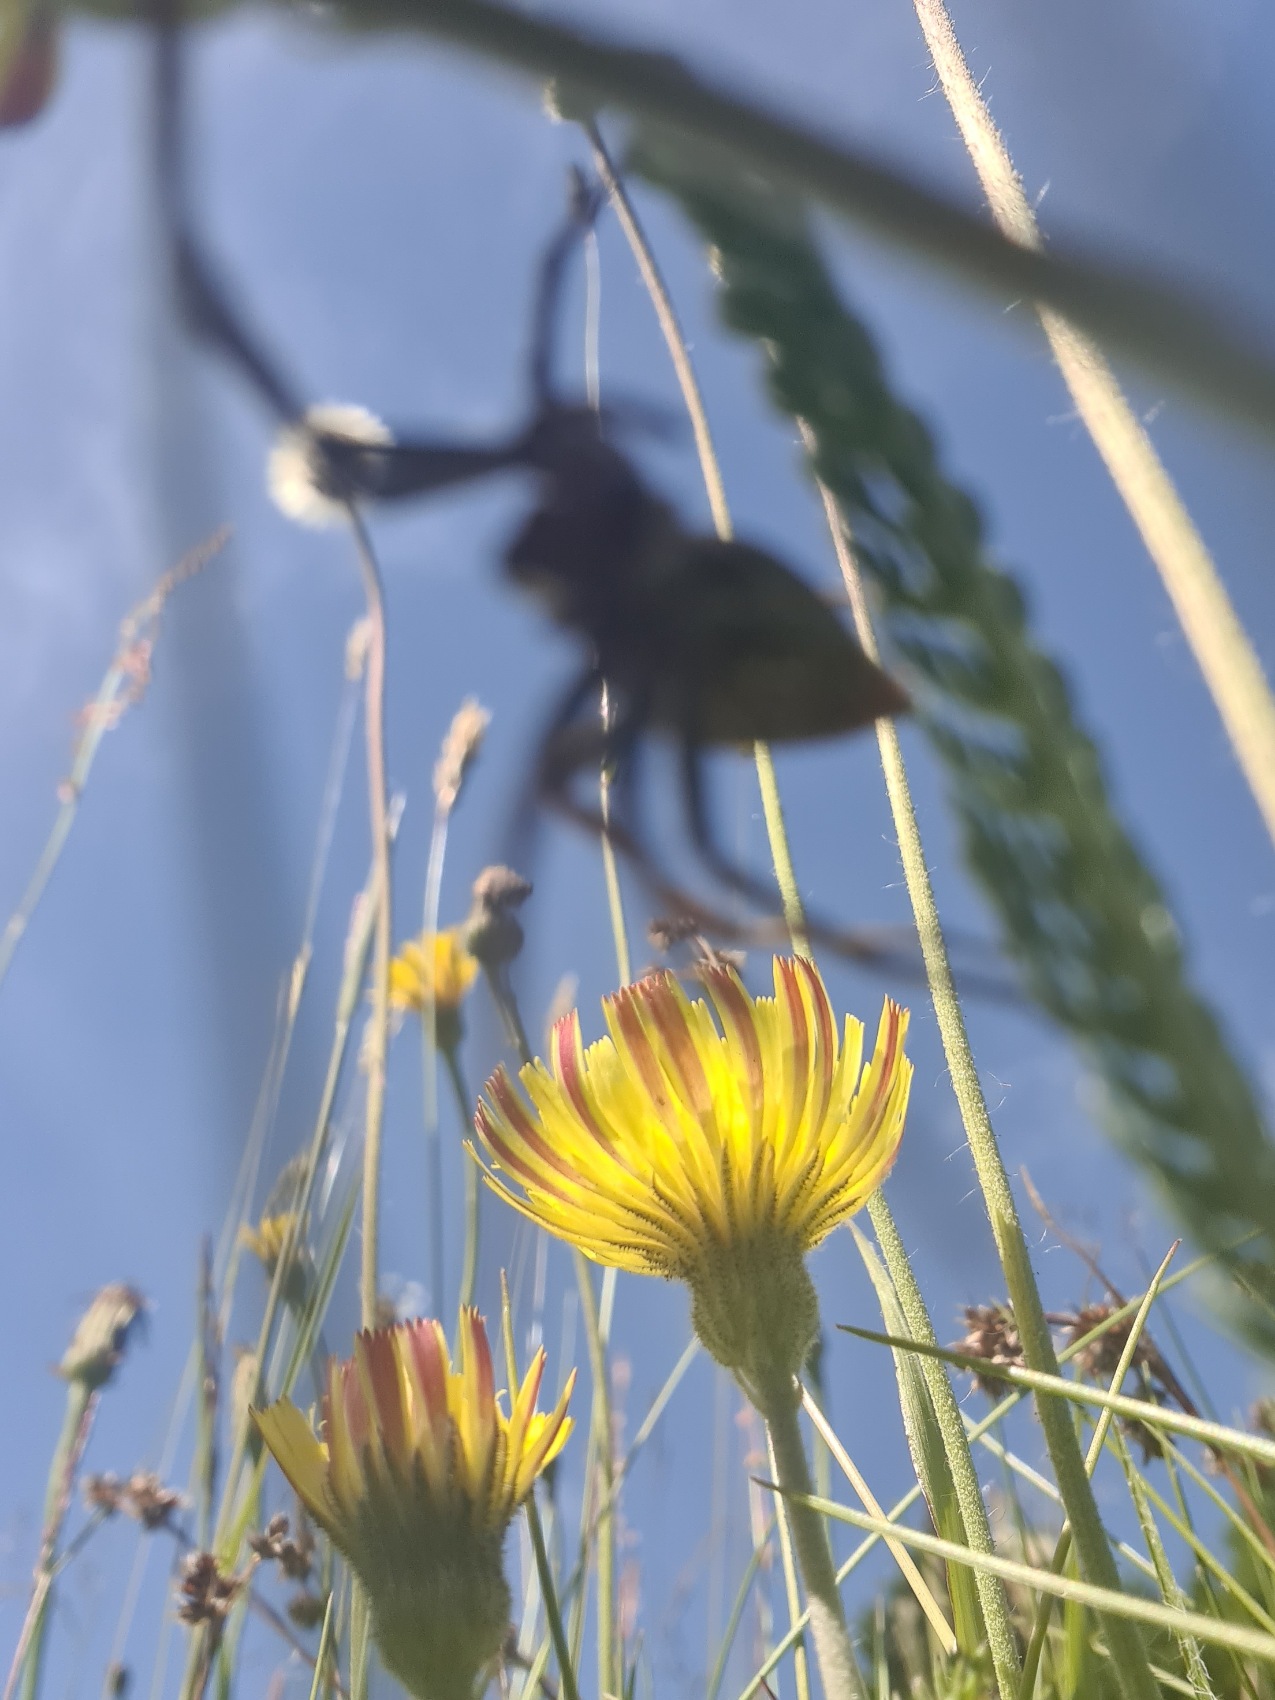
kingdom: Animalia
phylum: Arthropoda
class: Arachnida
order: Araneae
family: Pisauridae
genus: Pisaura
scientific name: Pisaura mirabilis
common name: Almindelig rovedderkop
